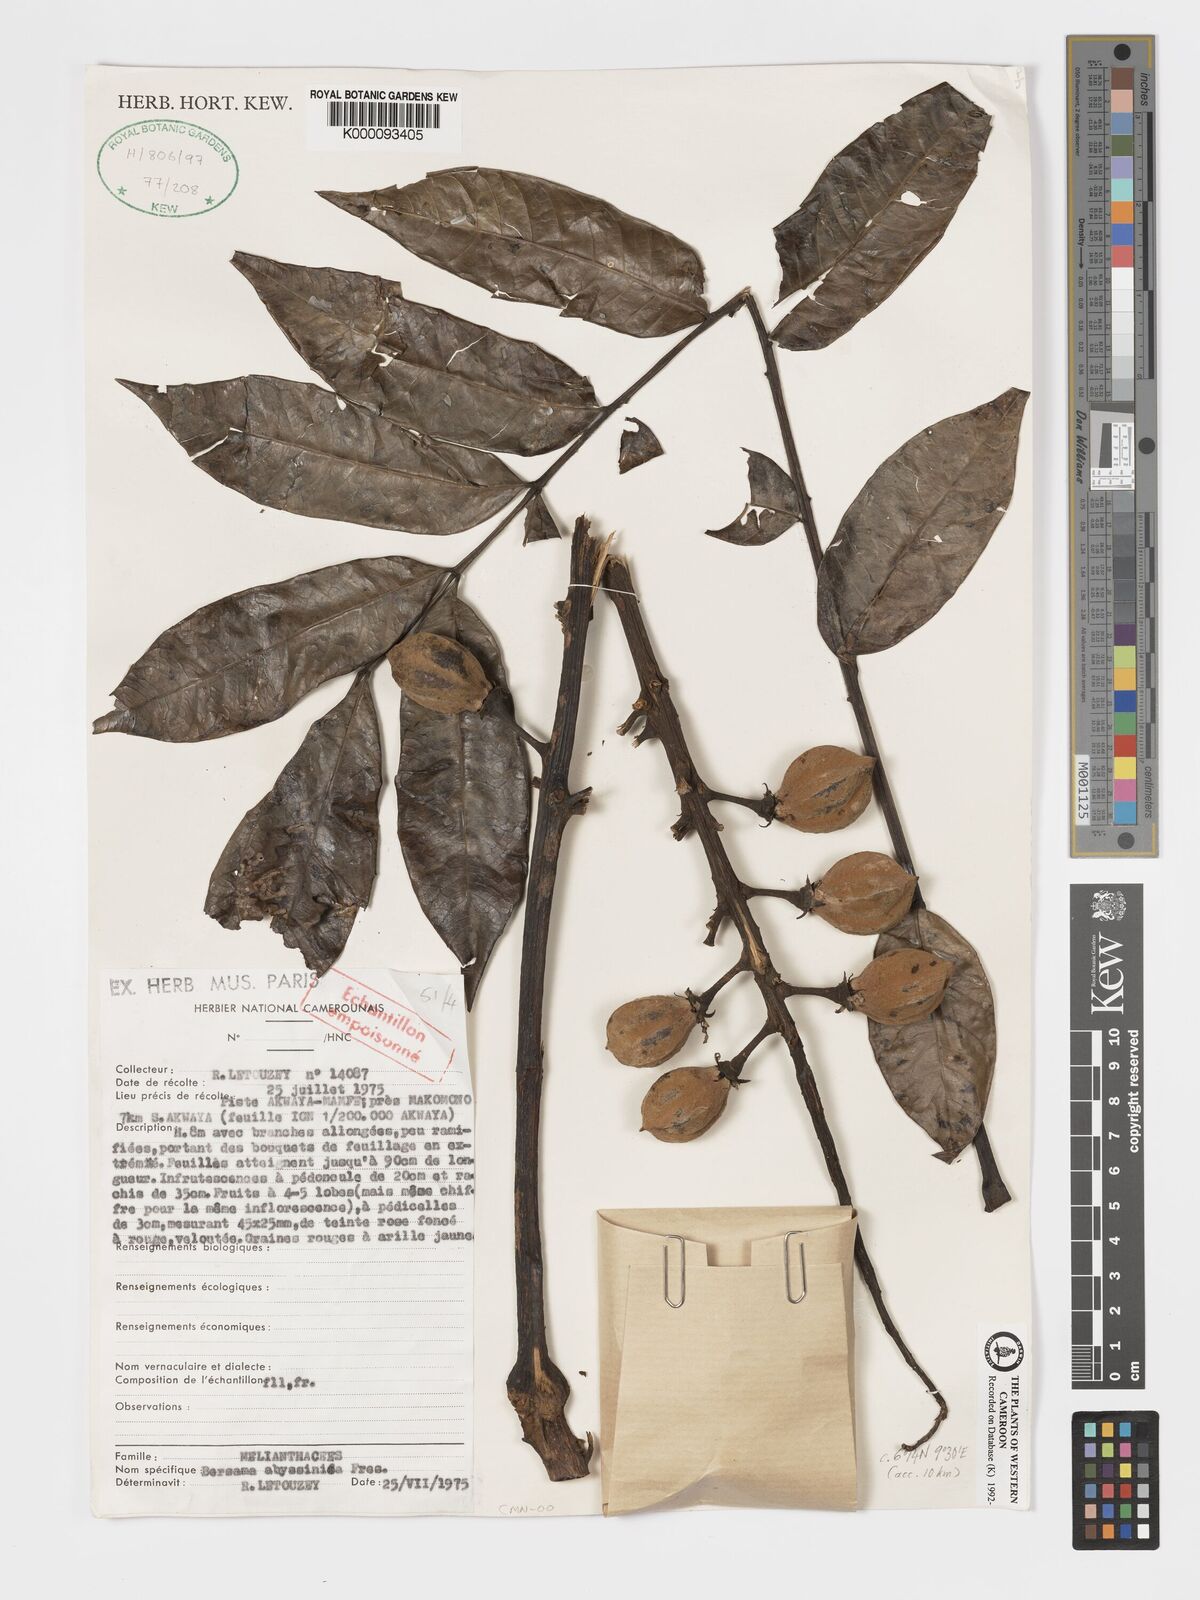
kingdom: Plantae
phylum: Tracheophyta
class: Magnoliopsida
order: Geraniales
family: Melianthaceae
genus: Bersama
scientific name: Bersama abyssinica
